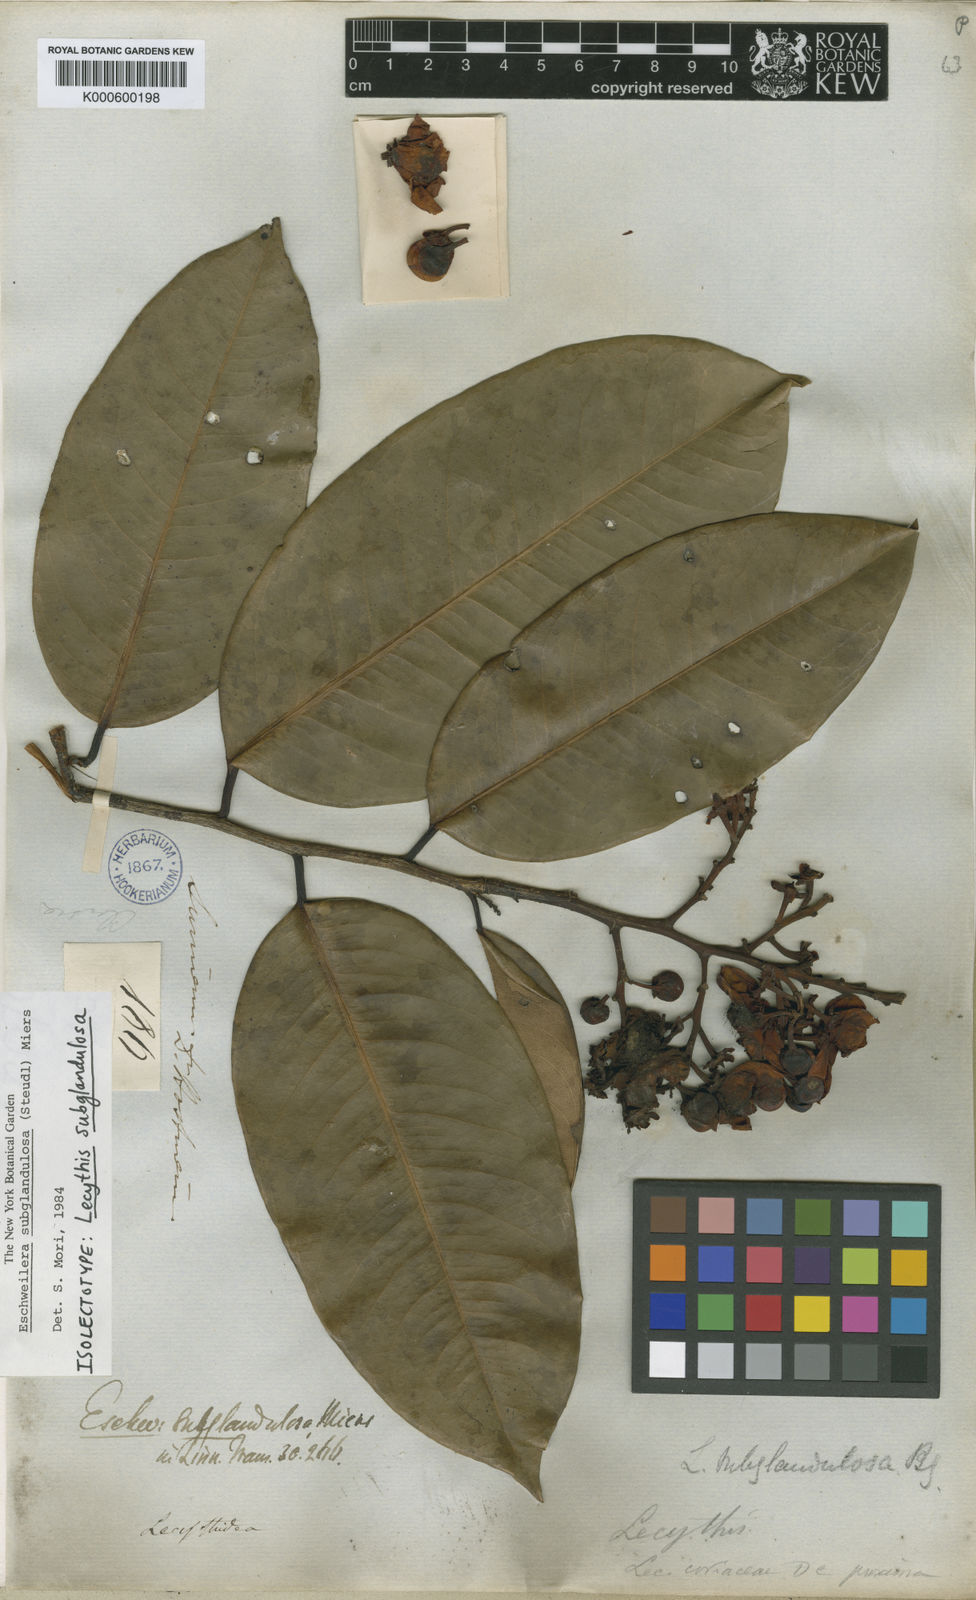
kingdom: Plantae
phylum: Tracheophyta
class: Magnoliopsida
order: Ericales
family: Lecythidaceae
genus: Eschweilera
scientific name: Eschweilera subglandulosa
